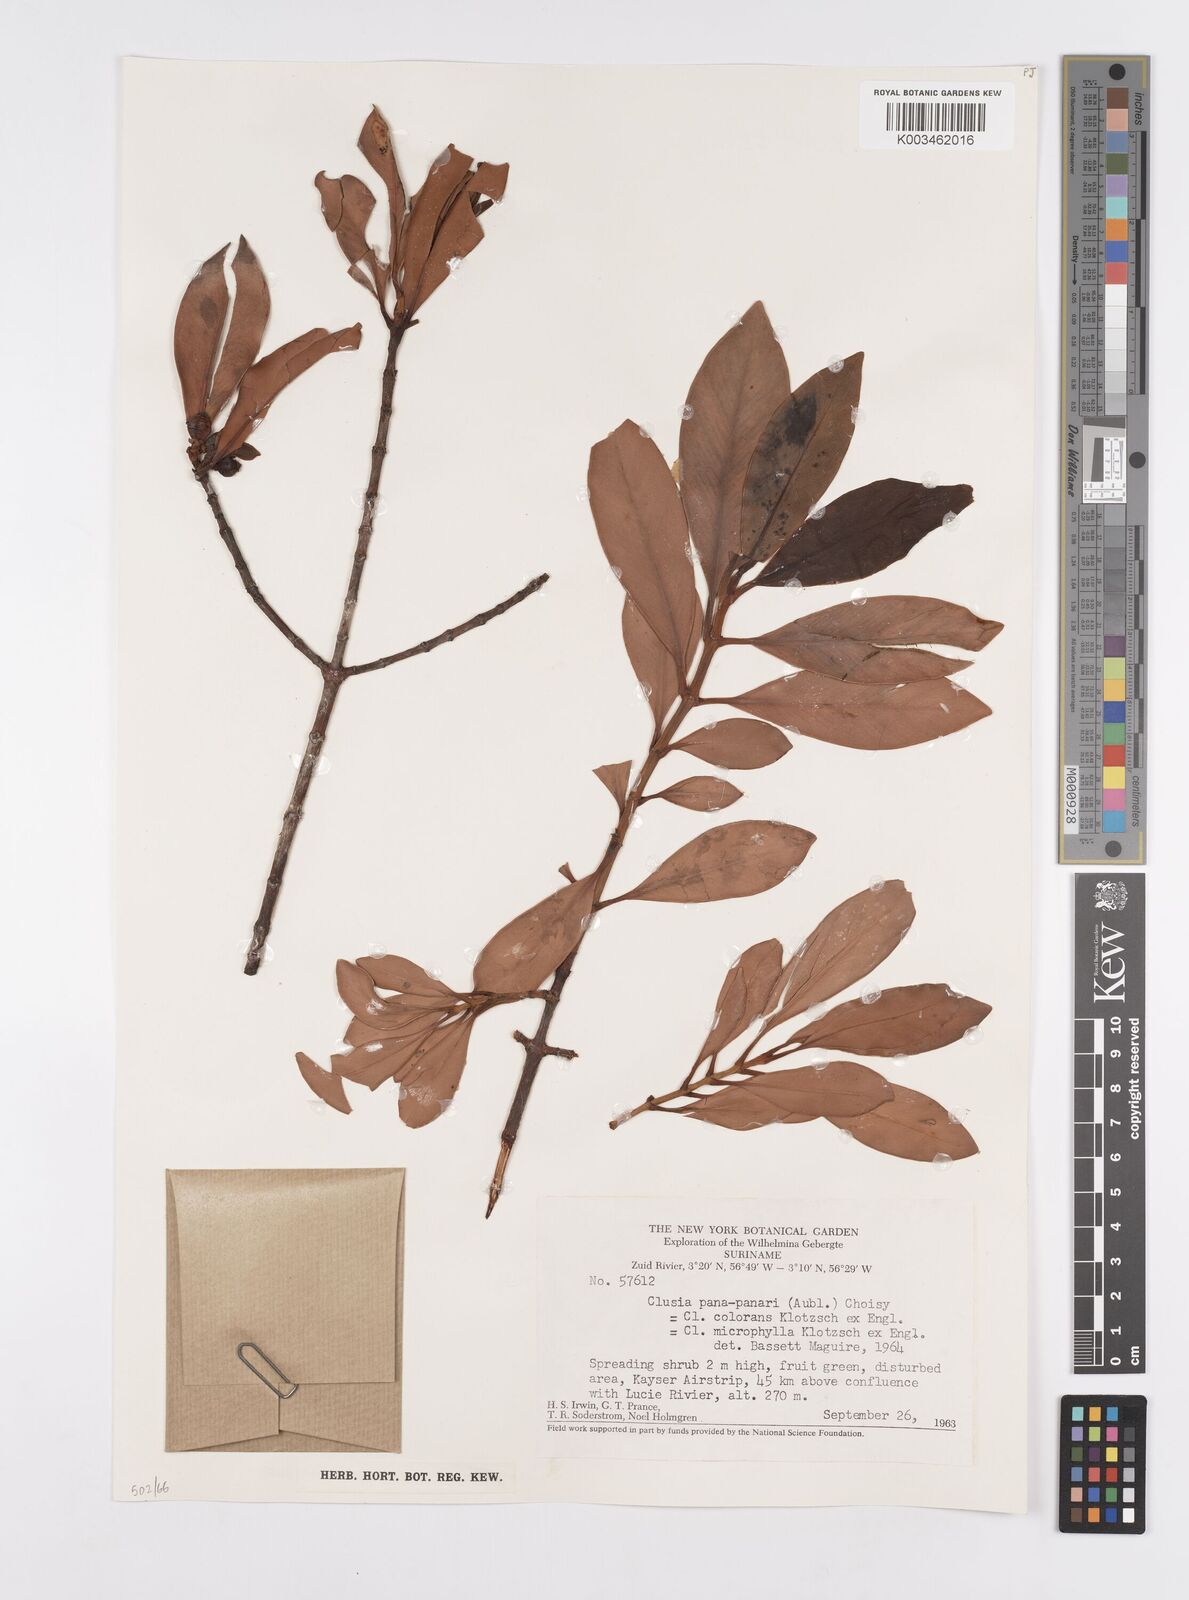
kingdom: Plantae
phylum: Tracheophyta
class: Magnoliopsida
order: Malpighiales
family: Clusiaceae
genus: Clusia
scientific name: Clusia panapanari
